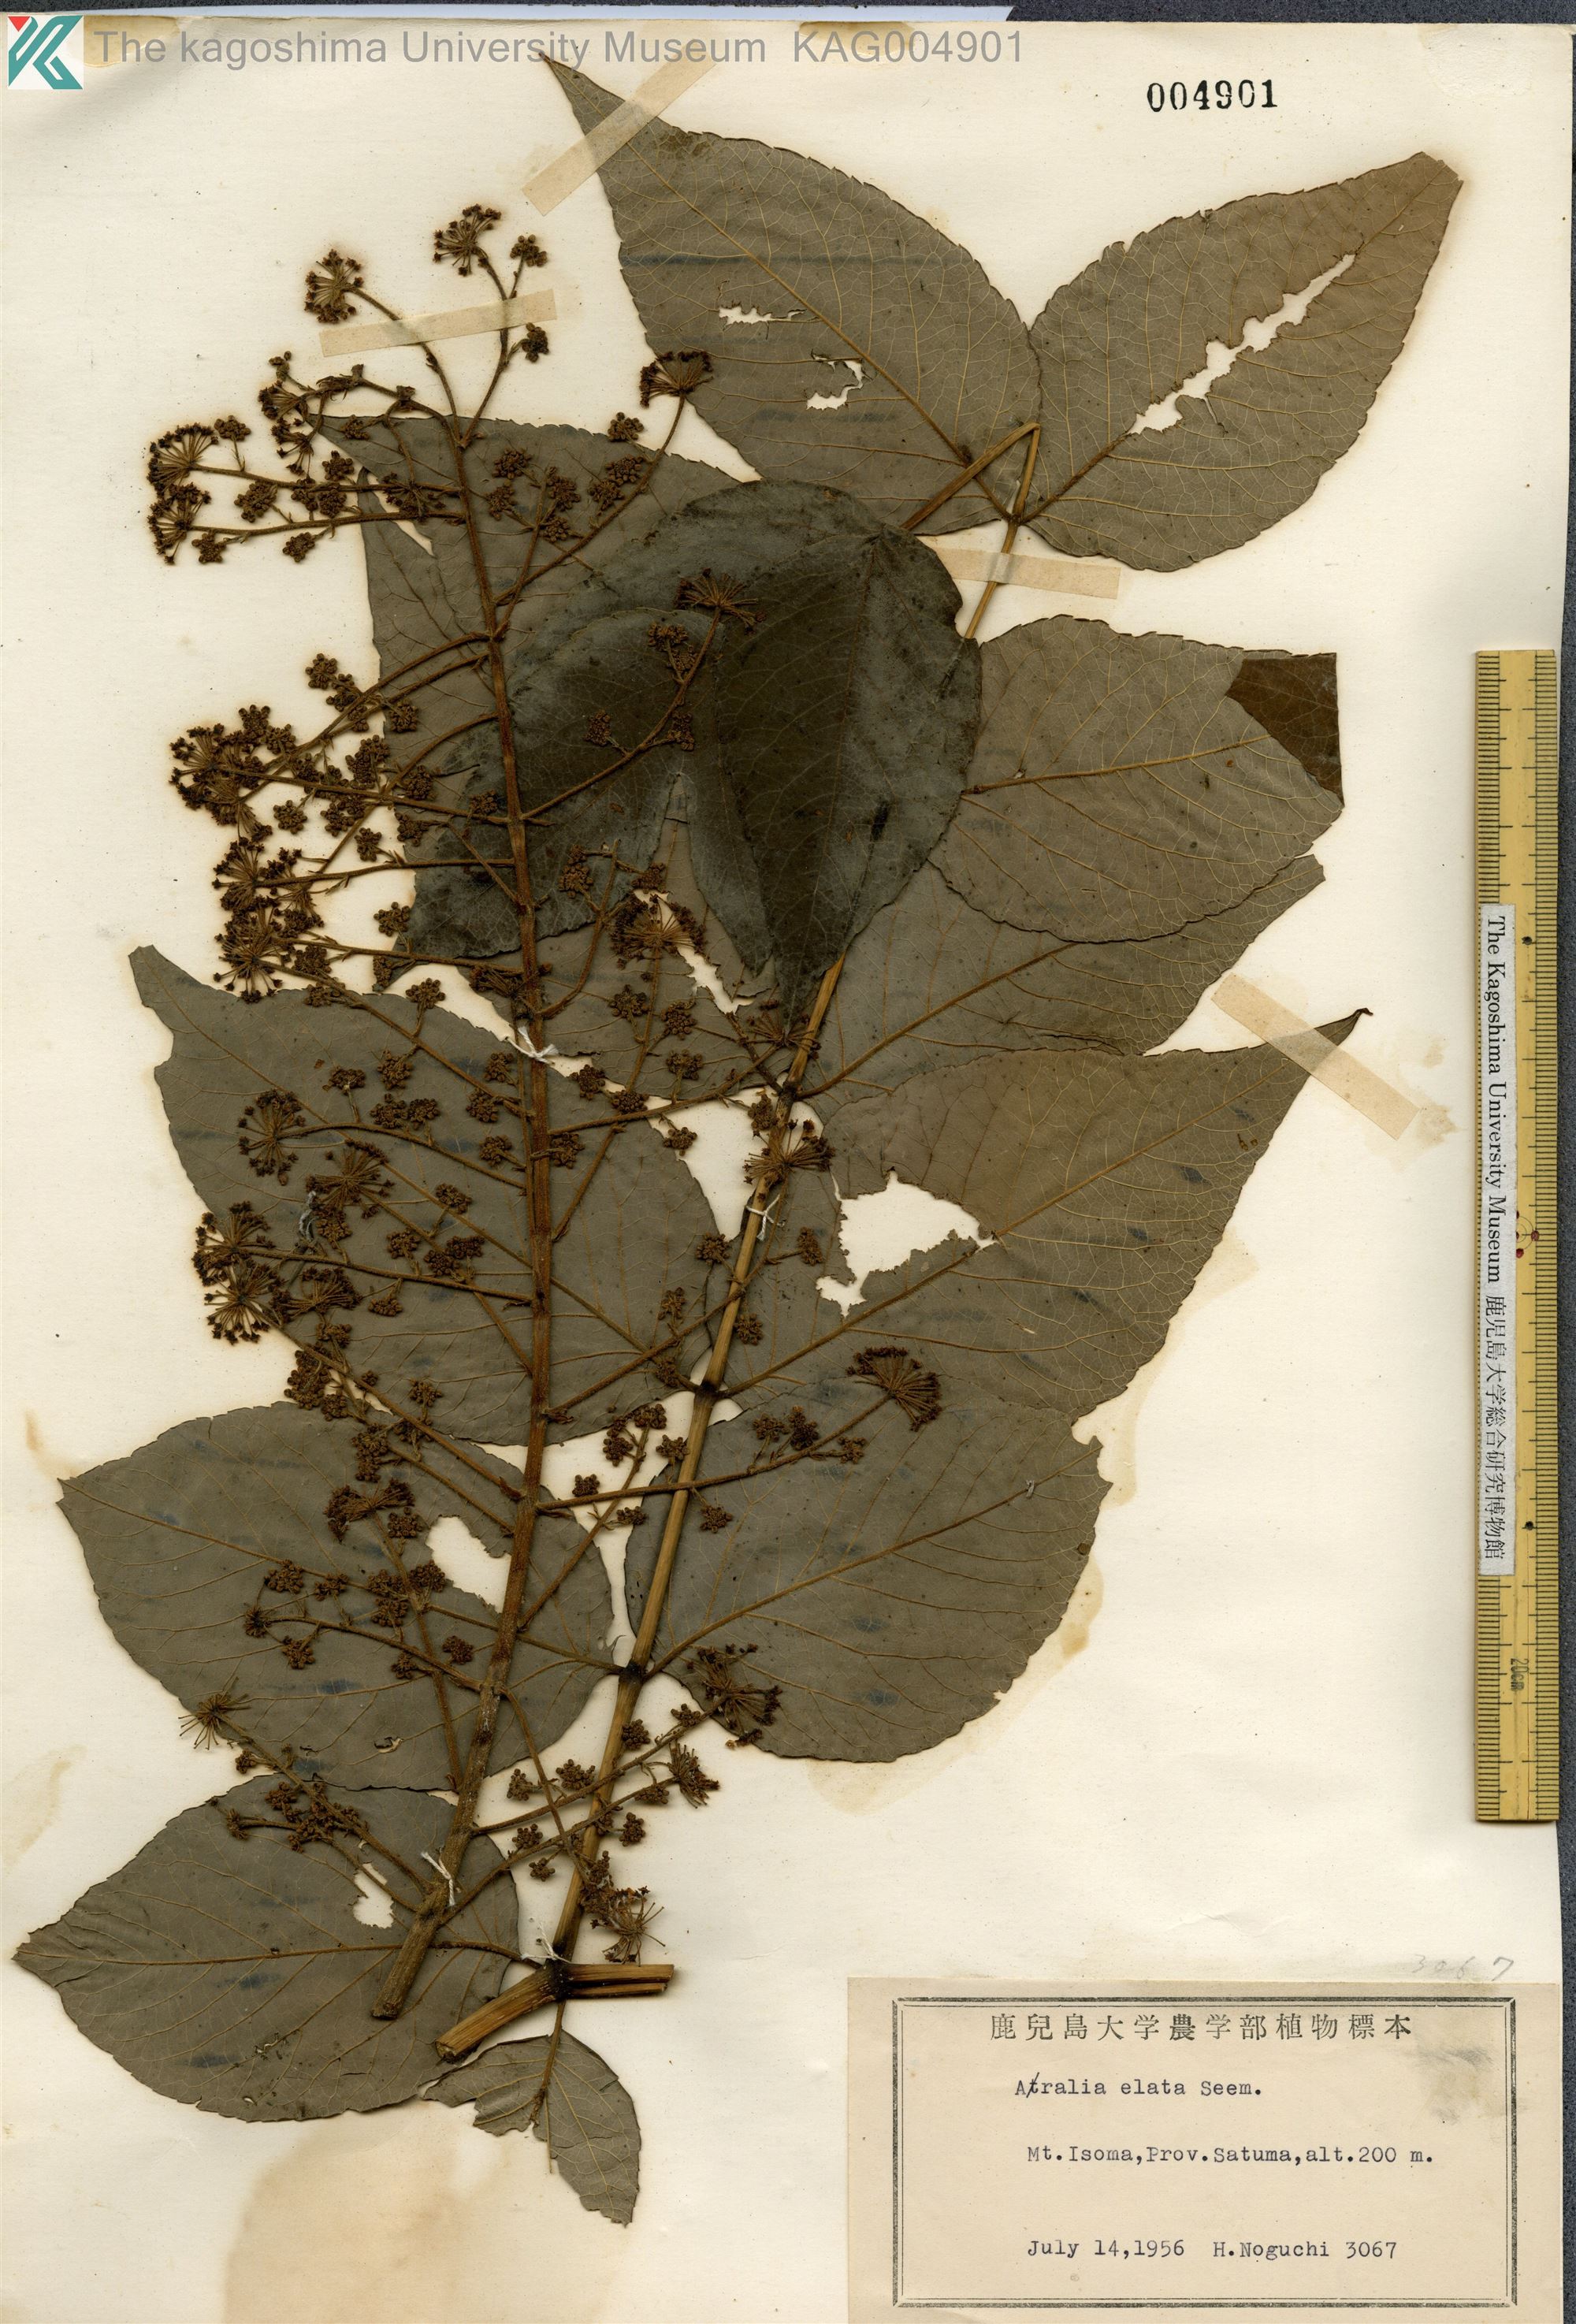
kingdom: Plantae
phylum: Tracheophyta
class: Magnoliopsida
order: Apiales
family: Araliaceae
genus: Aralia
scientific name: Aralia elata
